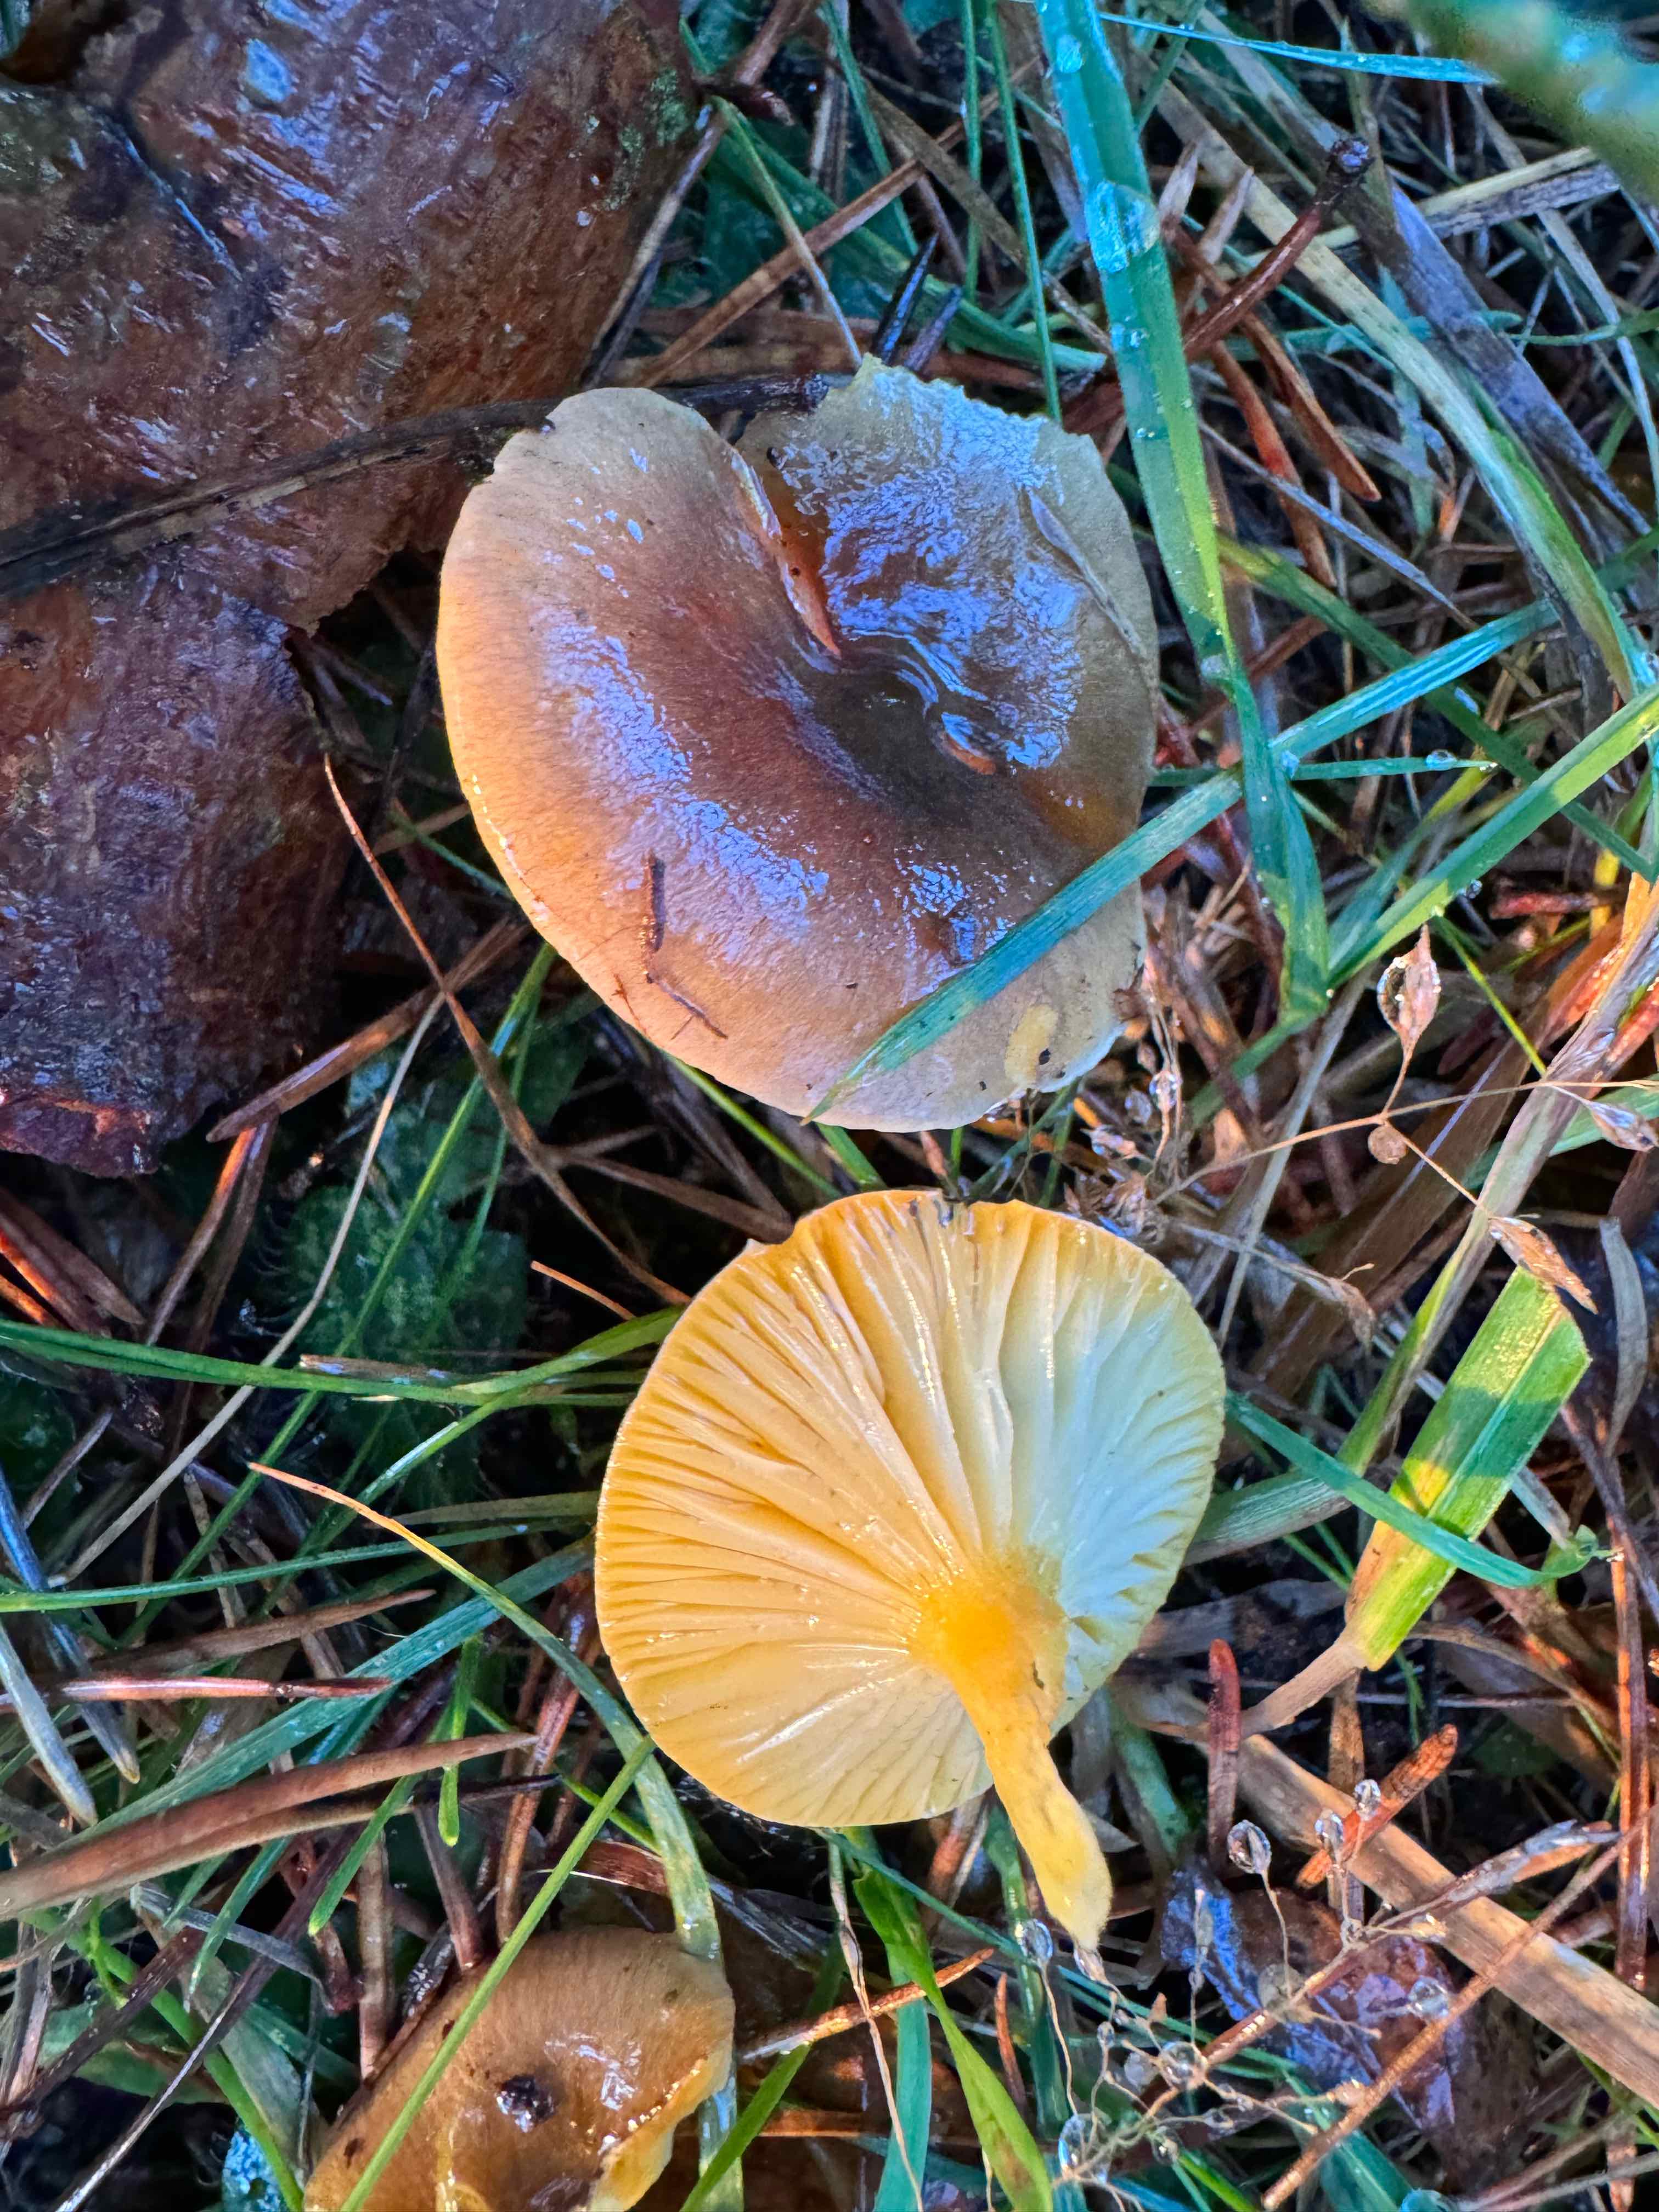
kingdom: Fungi
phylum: Basidiomycota
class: Agaricomycetes
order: Agaricales
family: Hygrophoraceae
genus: Hygrophorus
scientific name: Hygrophorus hypothejus
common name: frost-sneglehat
